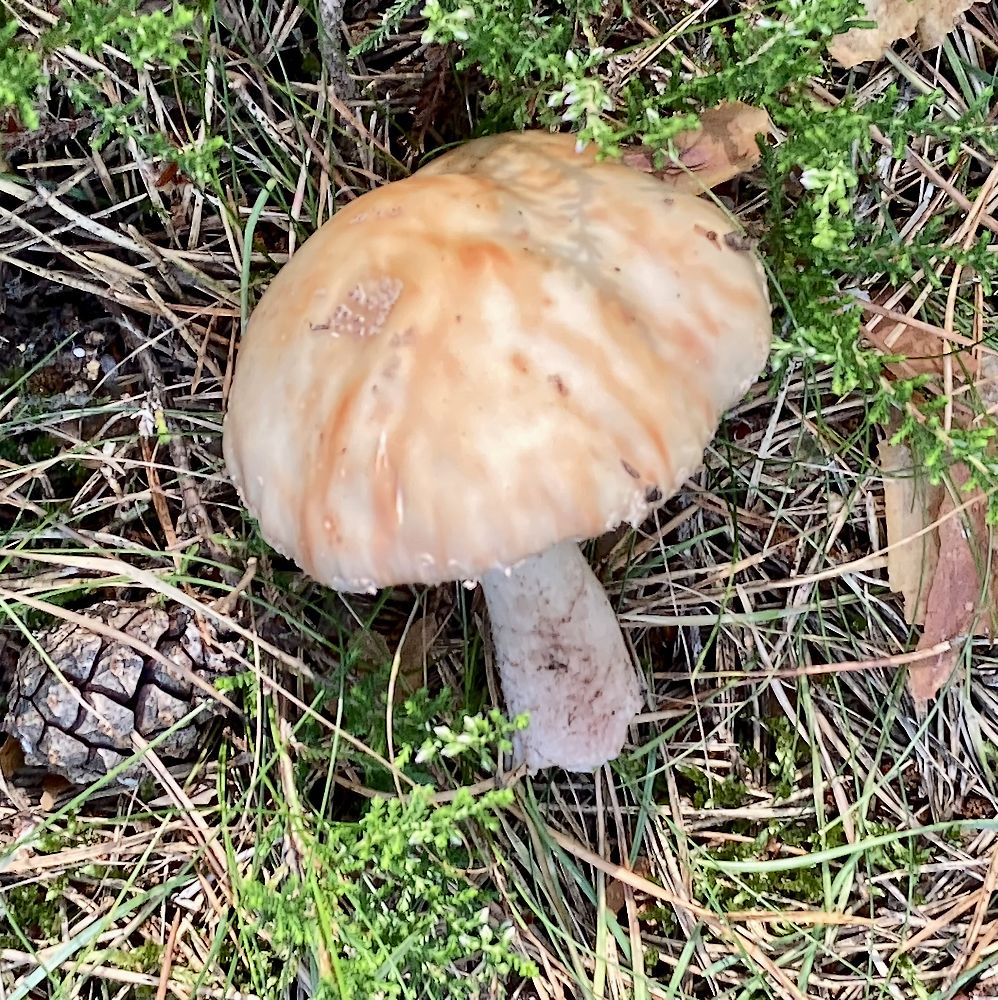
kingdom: Fungi
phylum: Basidiomycota
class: Agaricomycetes
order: Agaricales
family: Amanitaceae
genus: Amanita
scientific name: Amanita rubescens
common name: rødmende fluesvamp
